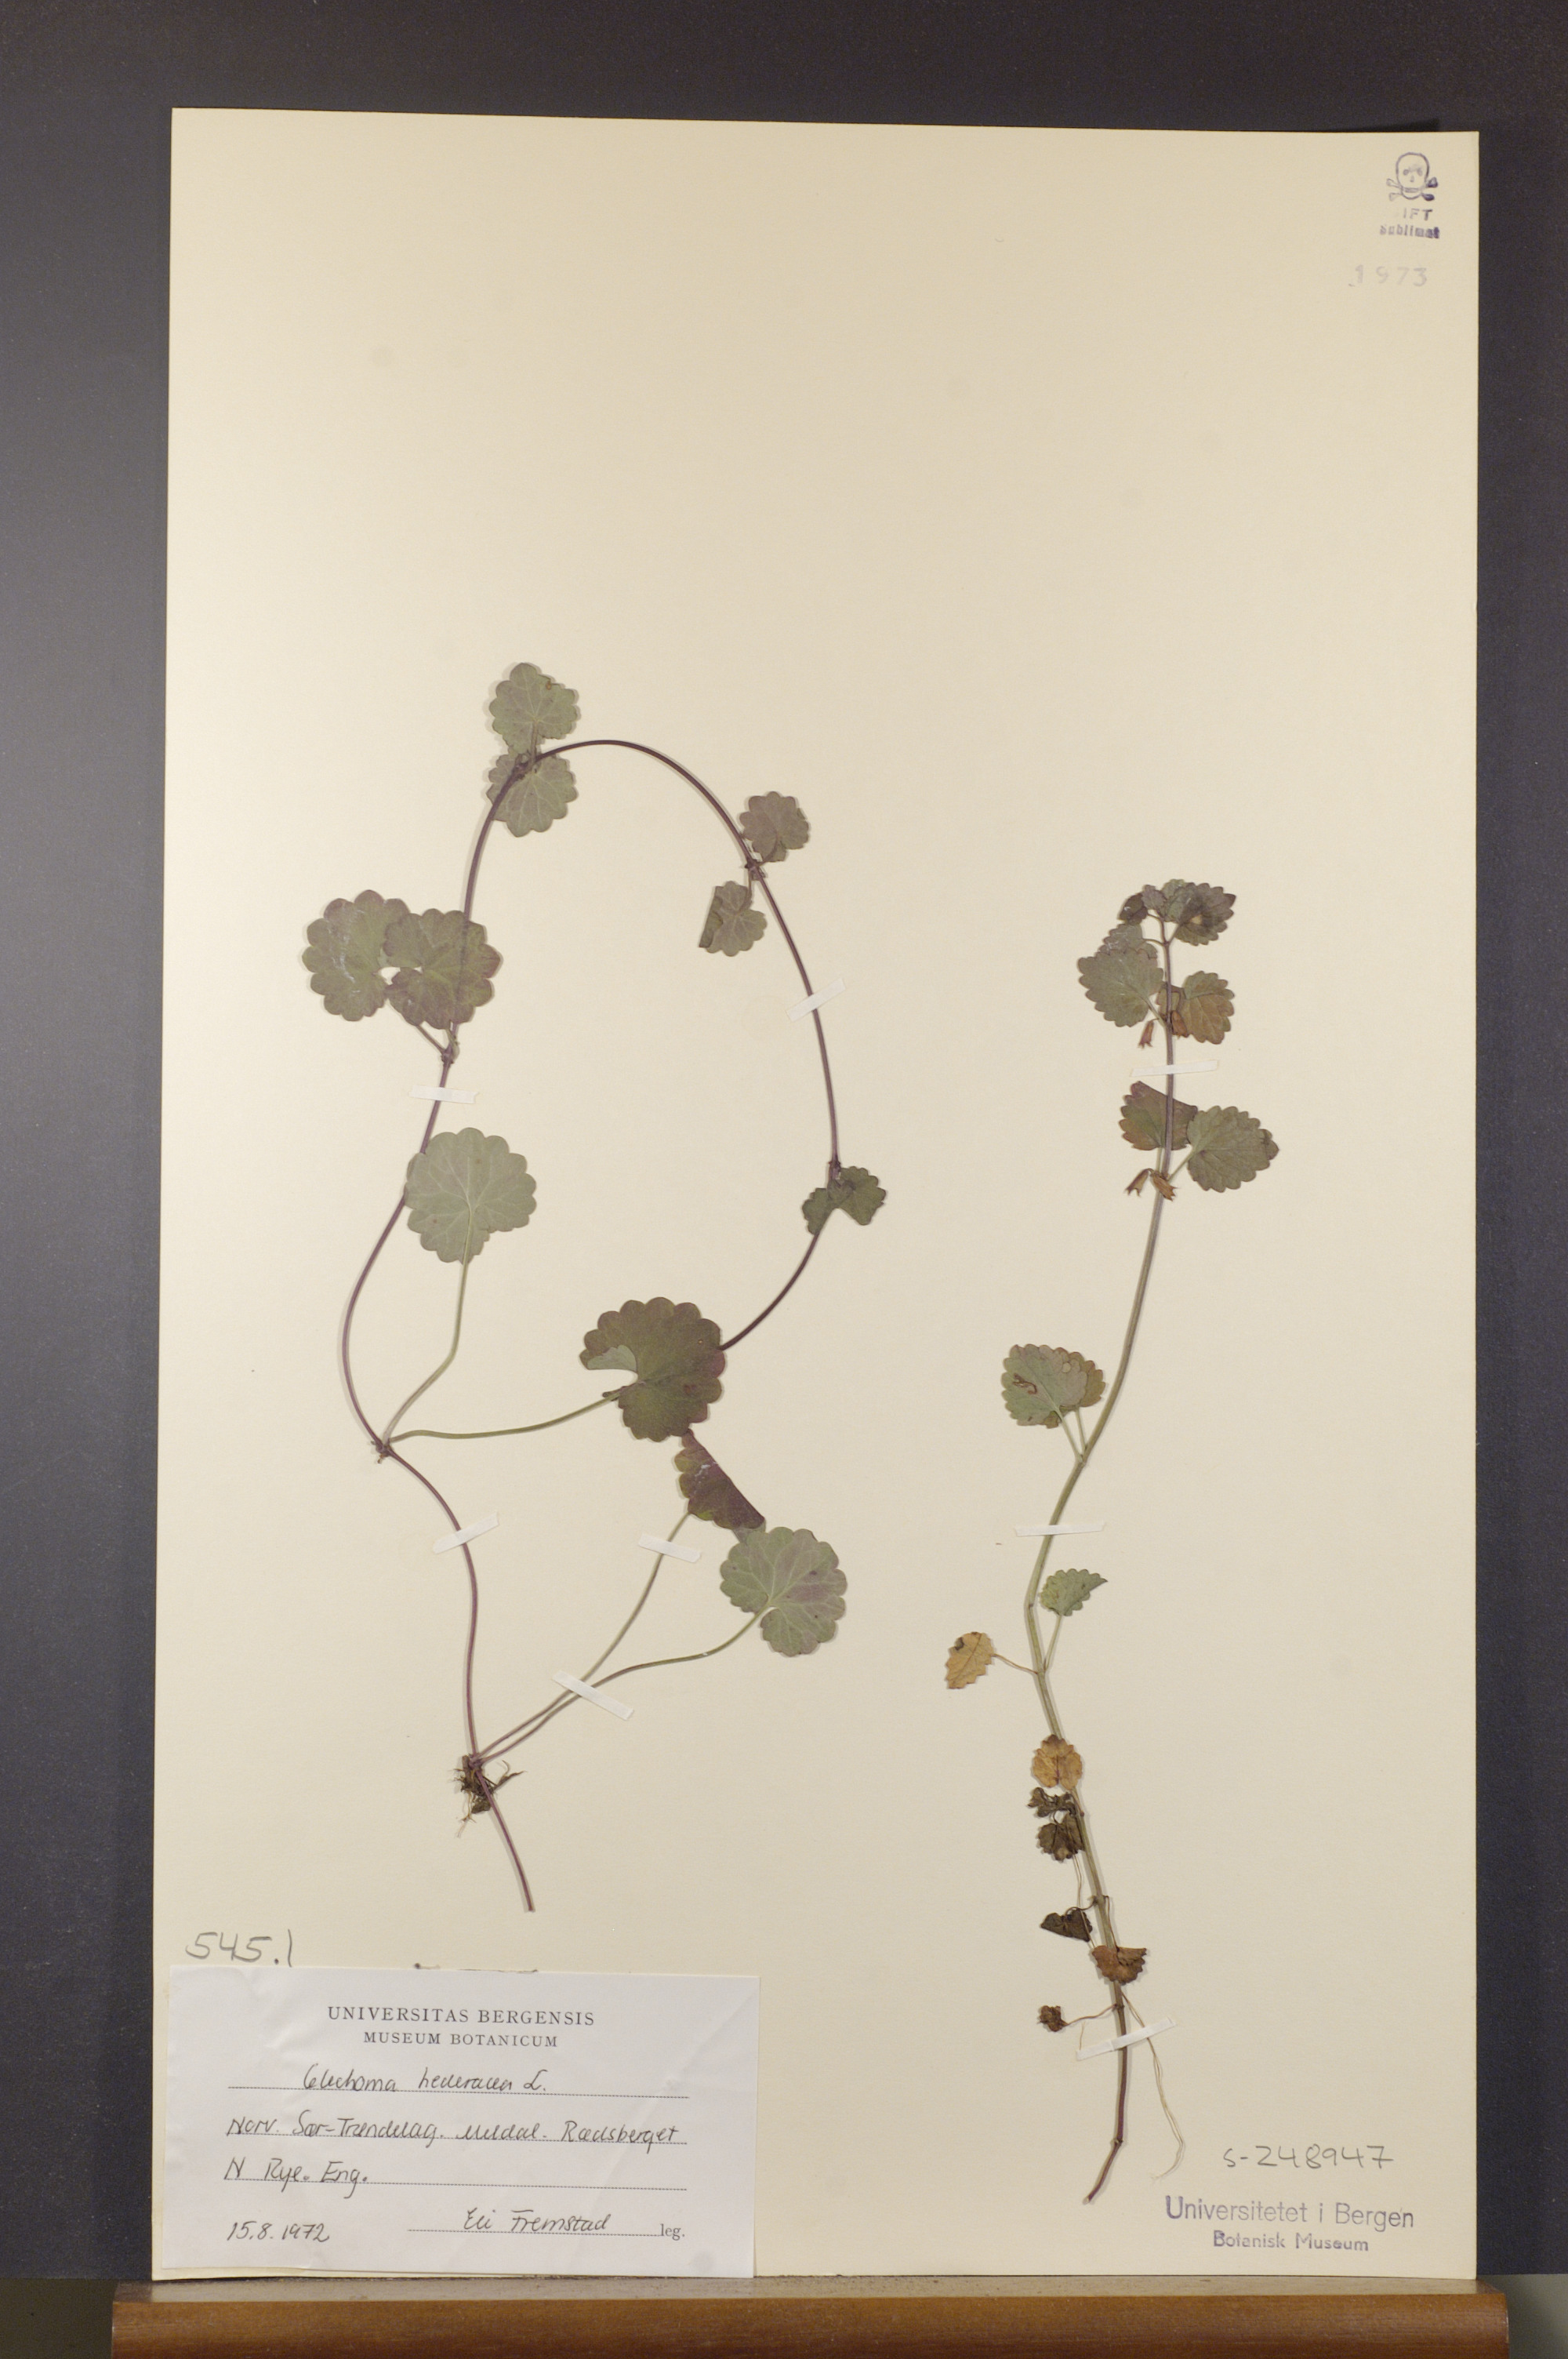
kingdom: Plantae
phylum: Tracheophyta
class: Magnoliopsida
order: Lamiales
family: Lamiaceae
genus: Glechoma
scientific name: Glechoma hederacea
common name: Ground ivy
